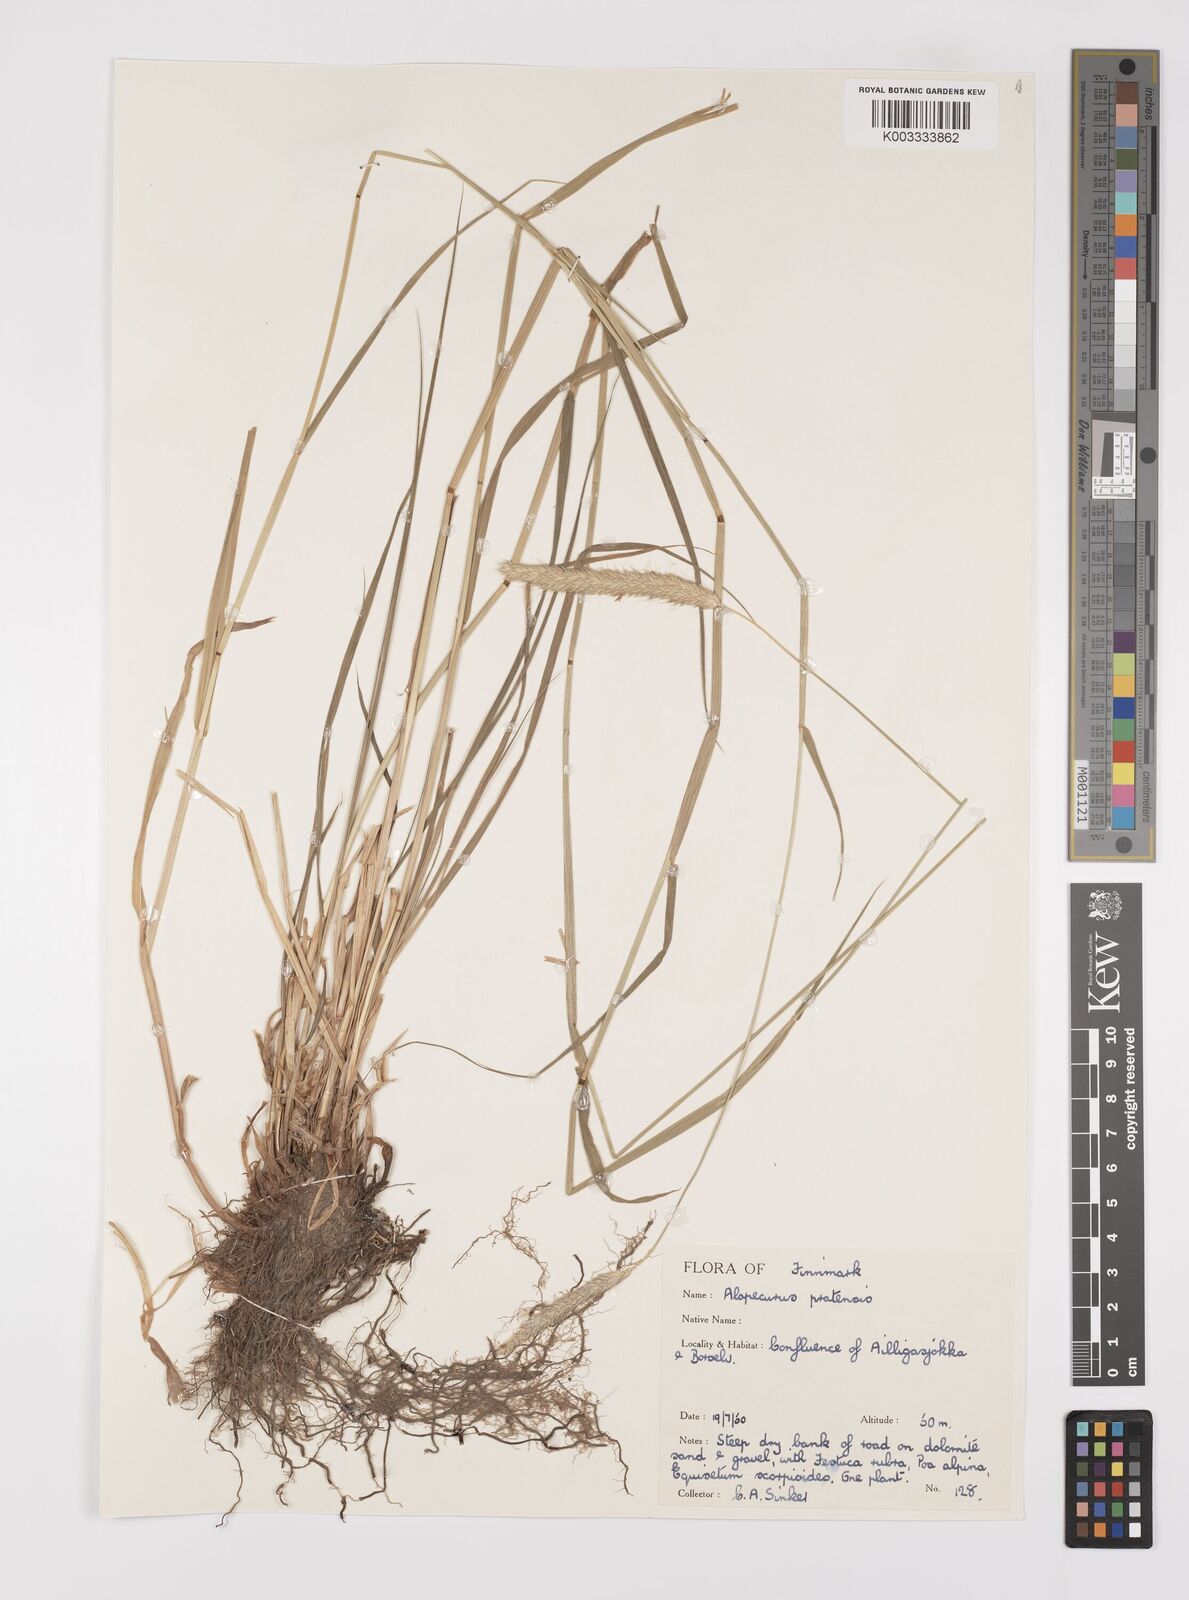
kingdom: Plantae
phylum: Tracheophyta
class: Liliopsida
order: Poales
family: Poaceae
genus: Alopecurus
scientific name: Alopecurus pratensis
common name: Meadow foxtail
